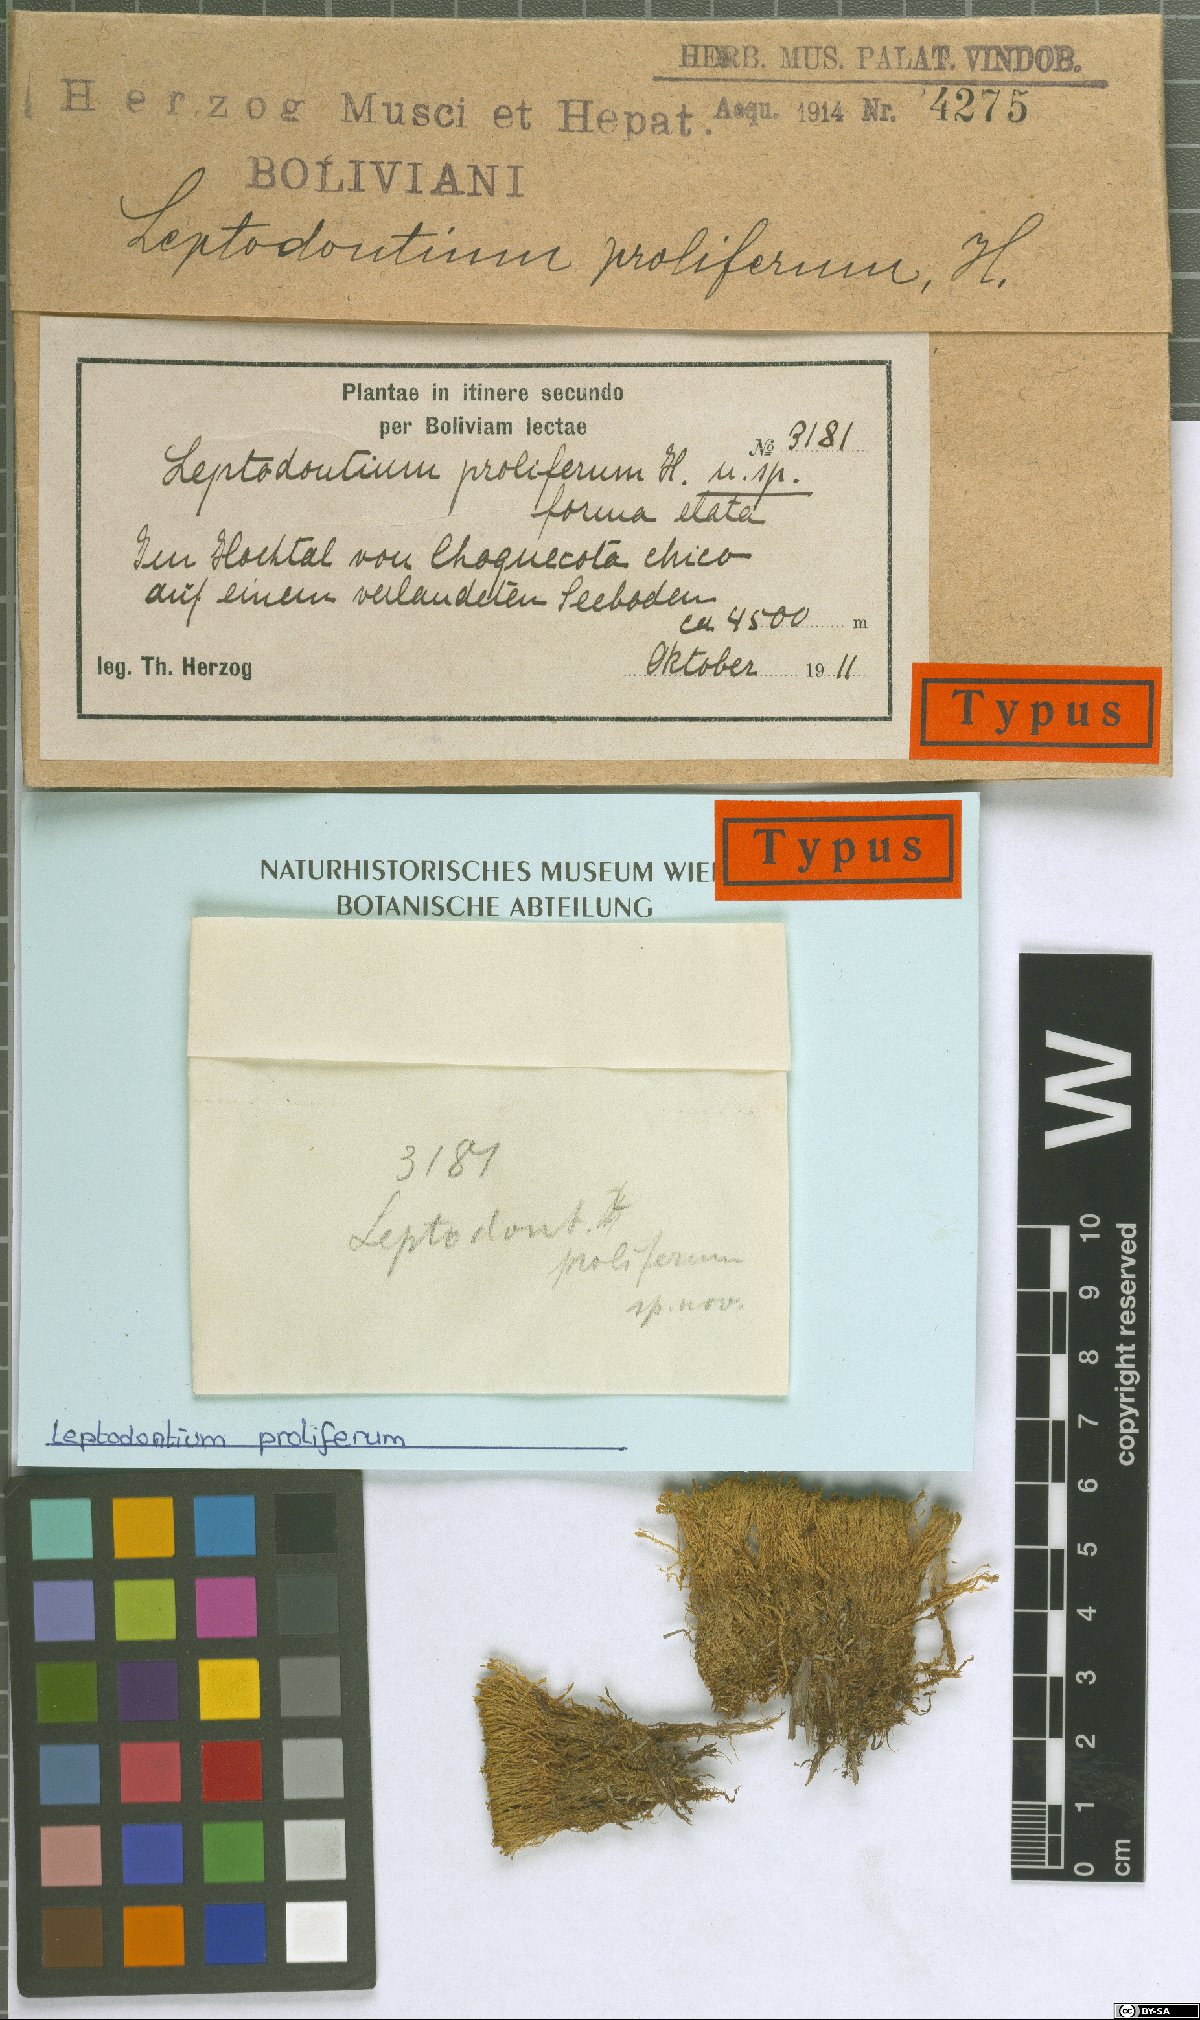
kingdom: Plantae
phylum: Bryophyta
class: Bryopsida
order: Pottiales
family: Pottiaceae
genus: Leptodontium
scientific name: Leptodontium proliferum
